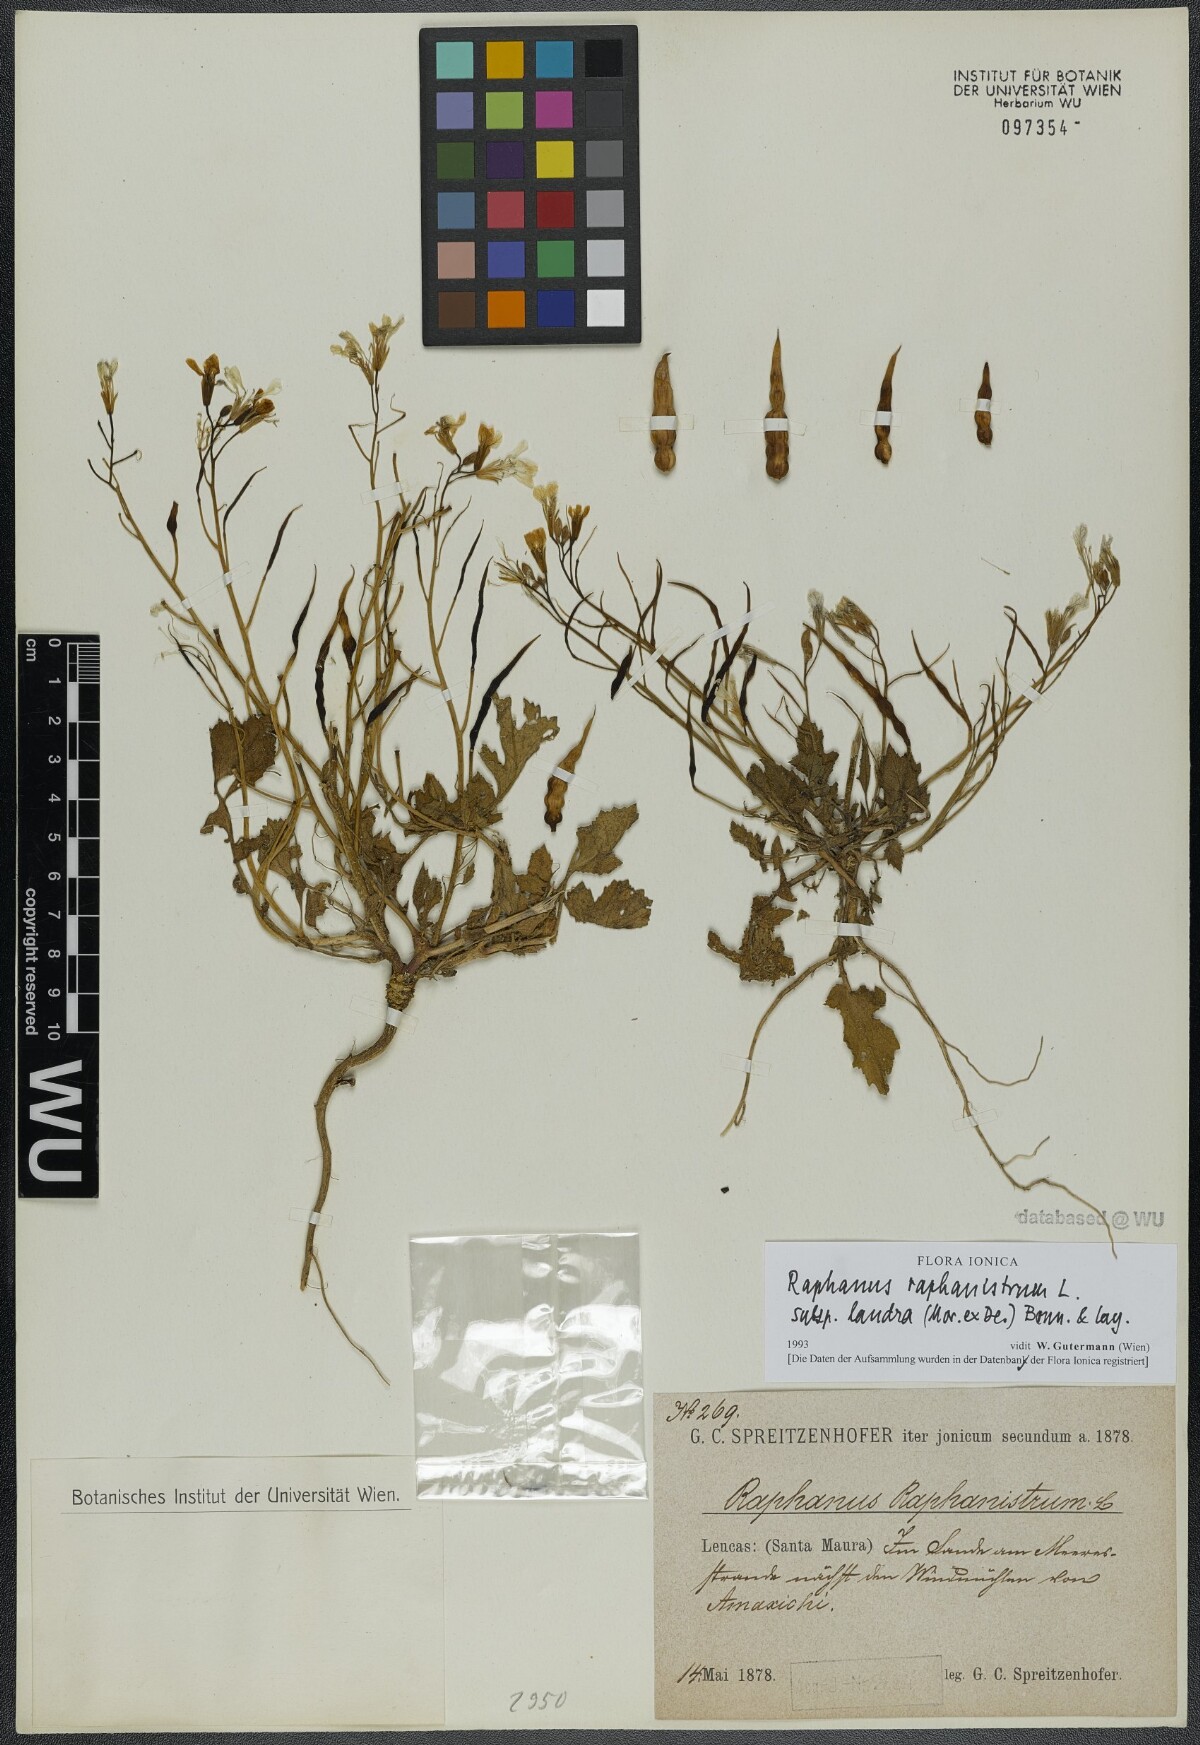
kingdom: Plantae
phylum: Tracheophyta
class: Magnoliopsida
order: Brassicales
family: Brassicaceae
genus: Raphanus
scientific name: Raphanus raphanistrum
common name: Wild radish
